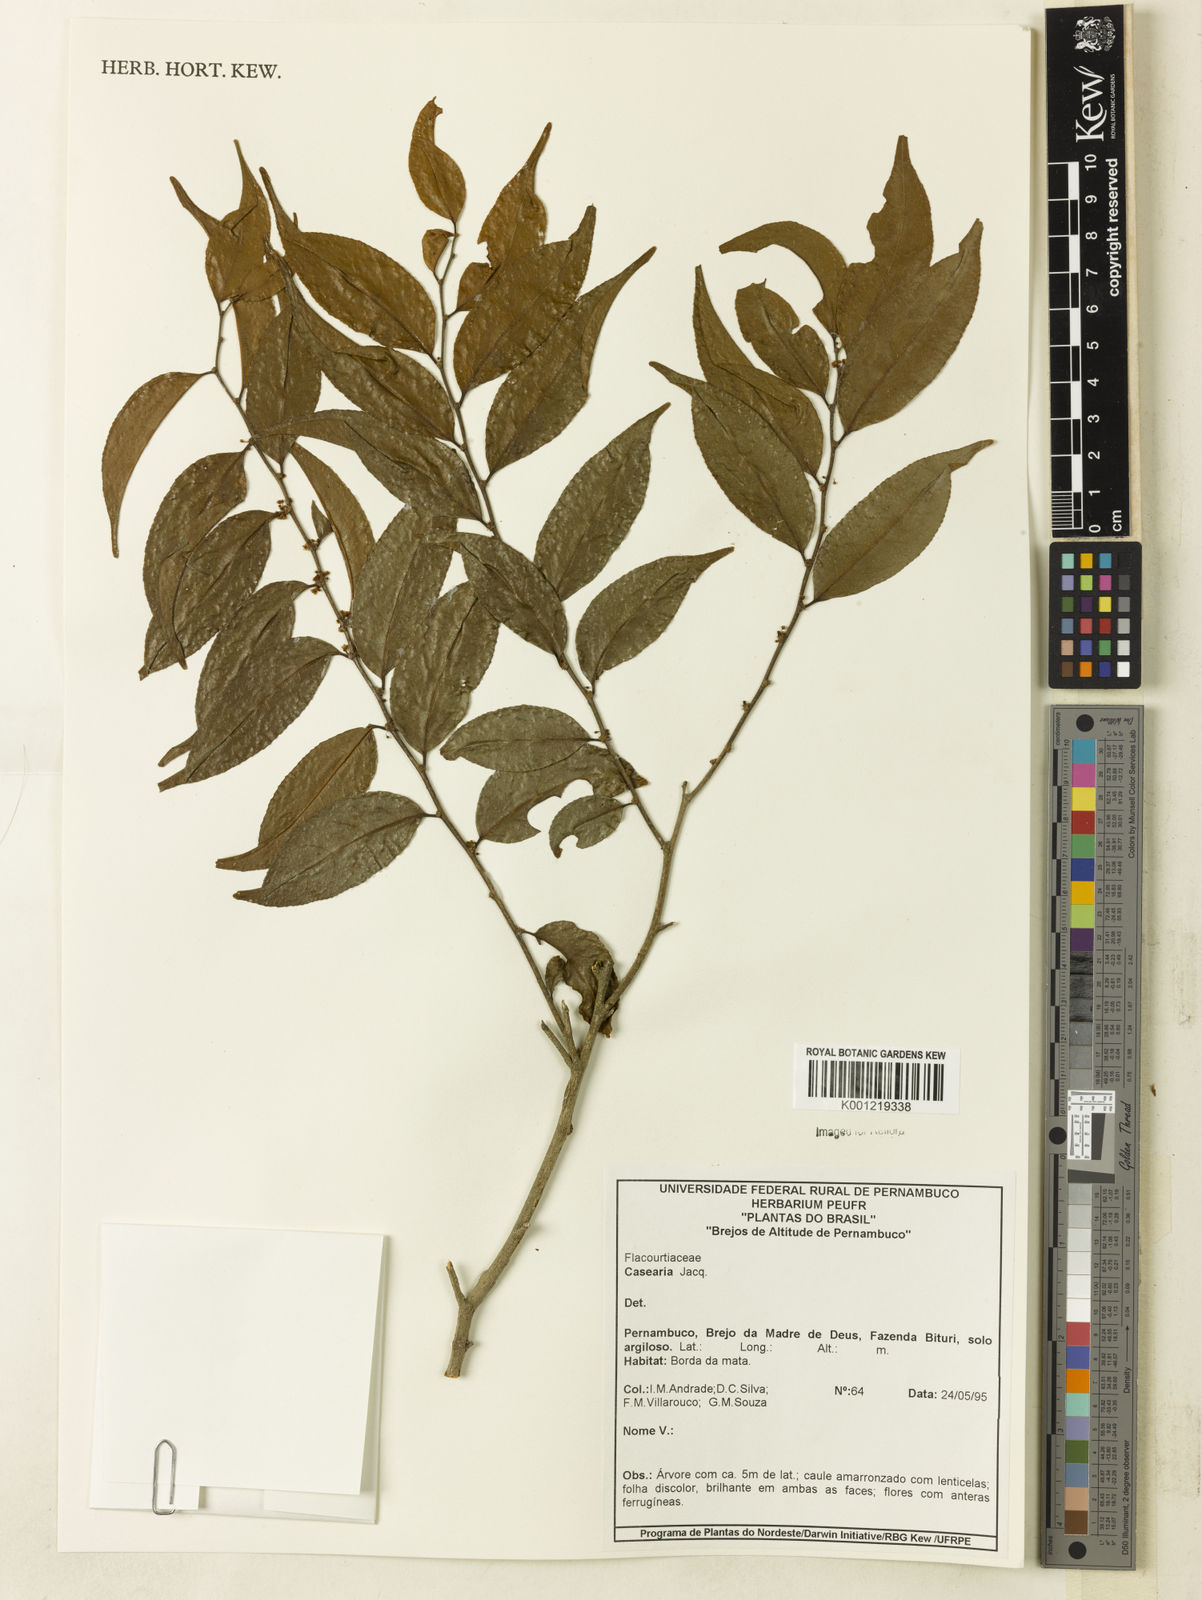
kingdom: Plantae
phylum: Tracheophyta
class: Magnoliopsida
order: Malpighiales
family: Salicaceae
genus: Casearia
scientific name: Casearia
